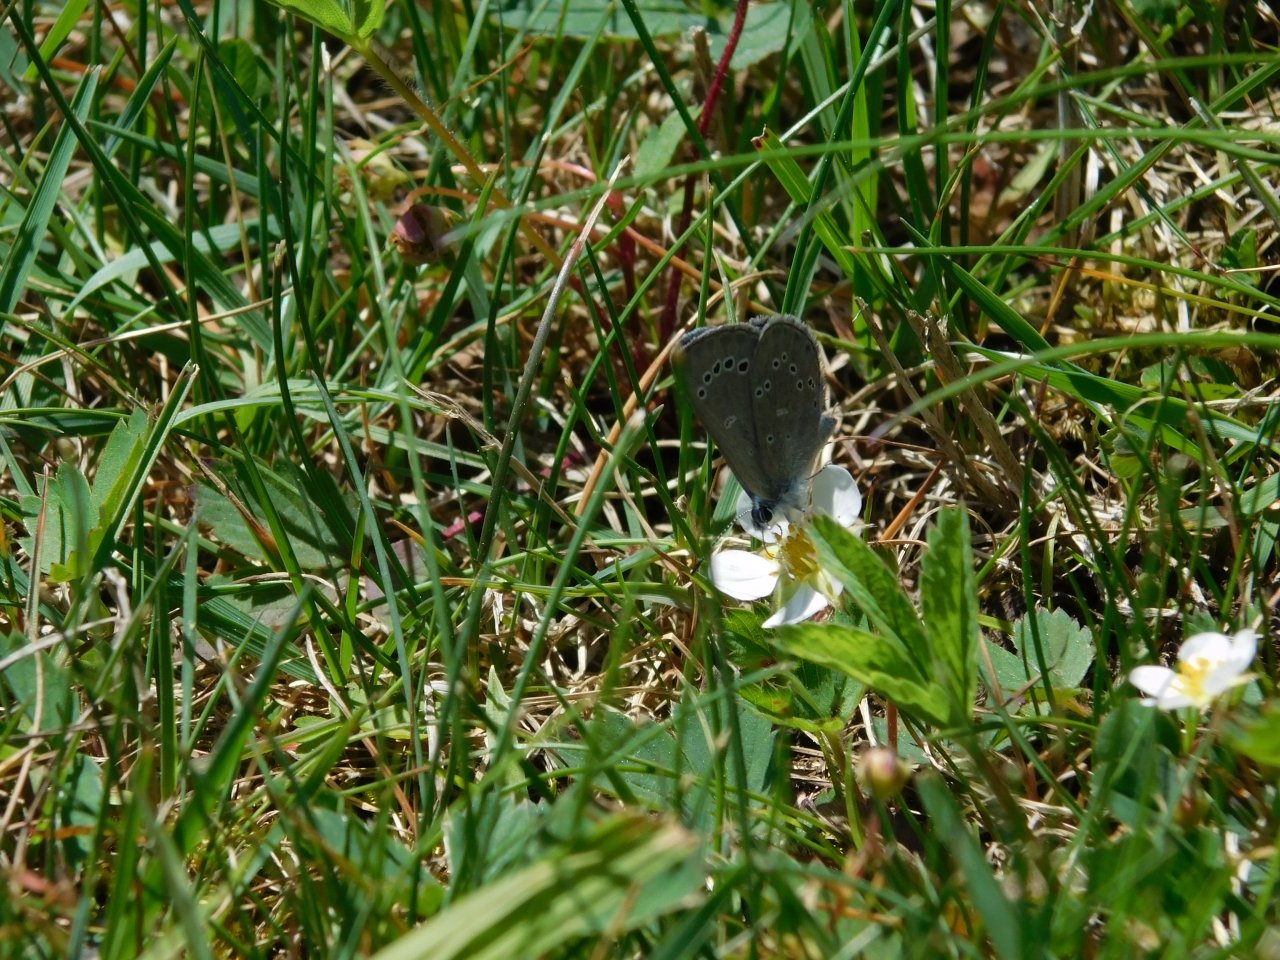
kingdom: Animalia
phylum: Arthropoda
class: Insecta
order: Lepidoptera
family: Lycaenidae
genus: Glaucopsyche
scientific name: Glaucopsyche lygdamus
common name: Silvery Blue
